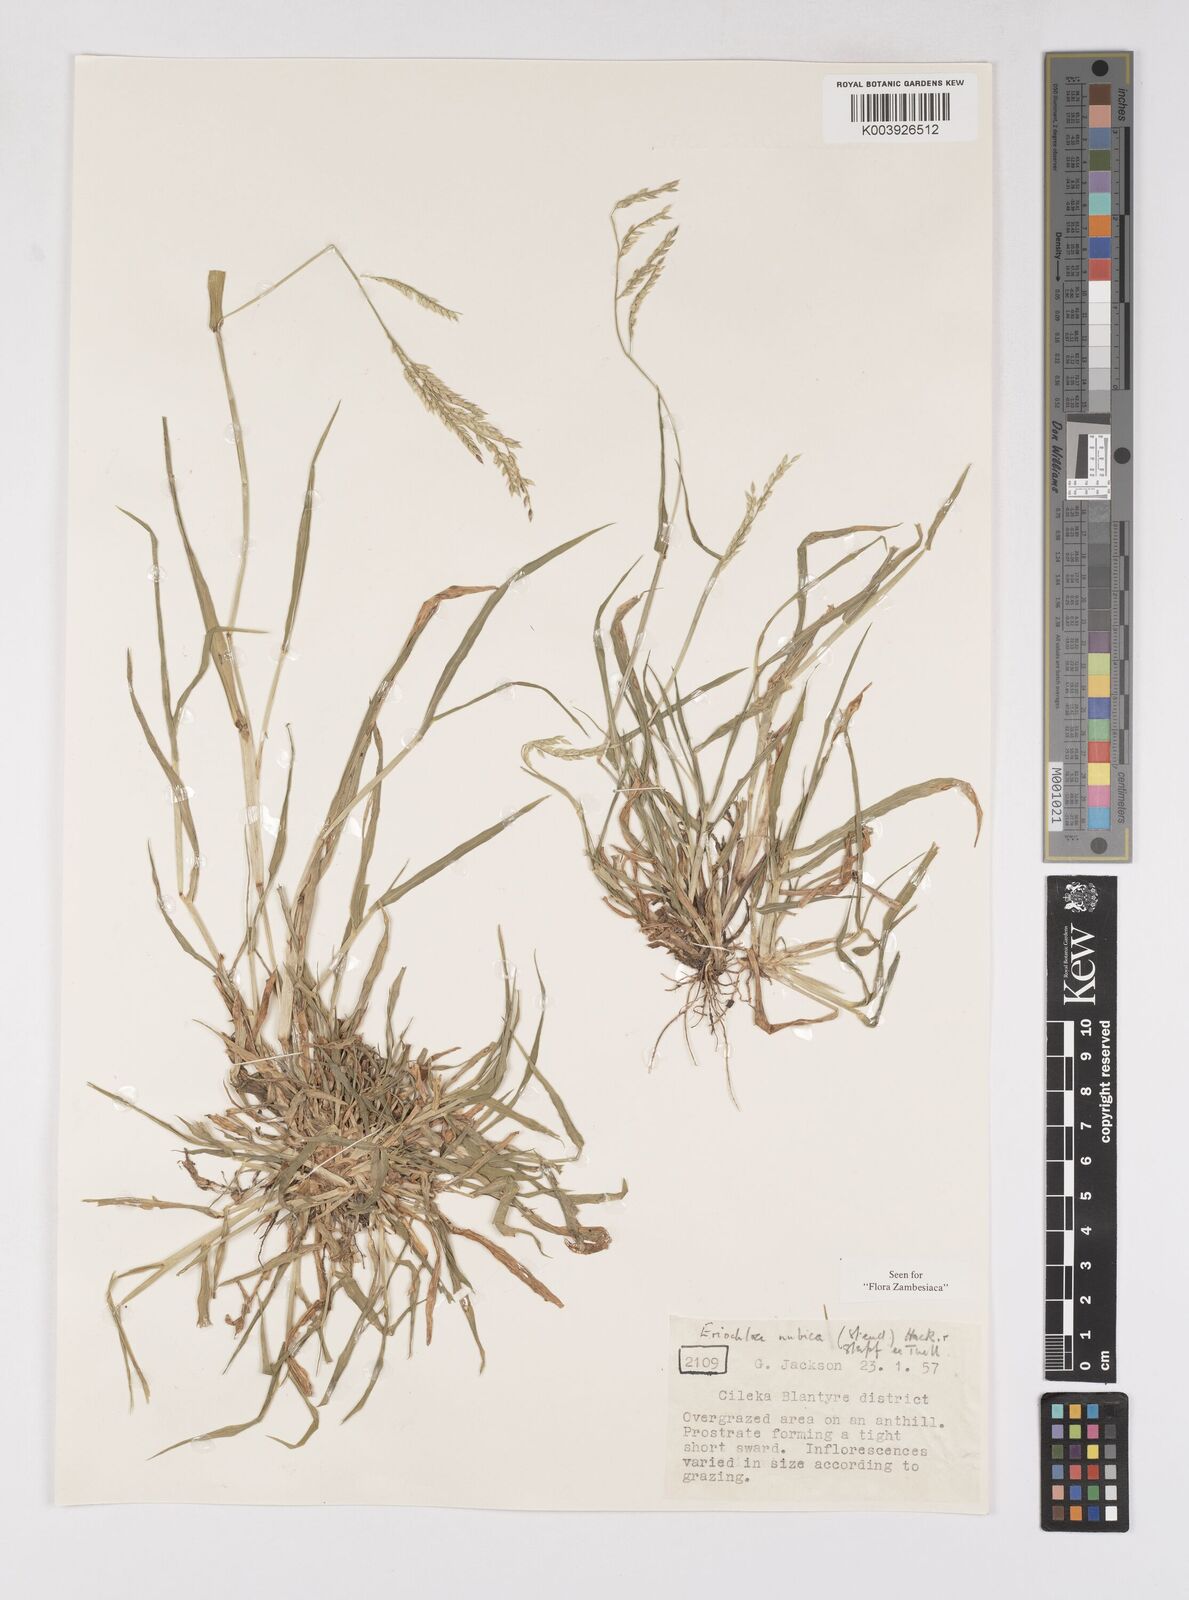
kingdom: Plantae
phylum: Tracheophyta
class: Liliopsida
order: Poales
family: Poaceae
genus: Eriochloa
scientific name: Eriochloa barbatus
